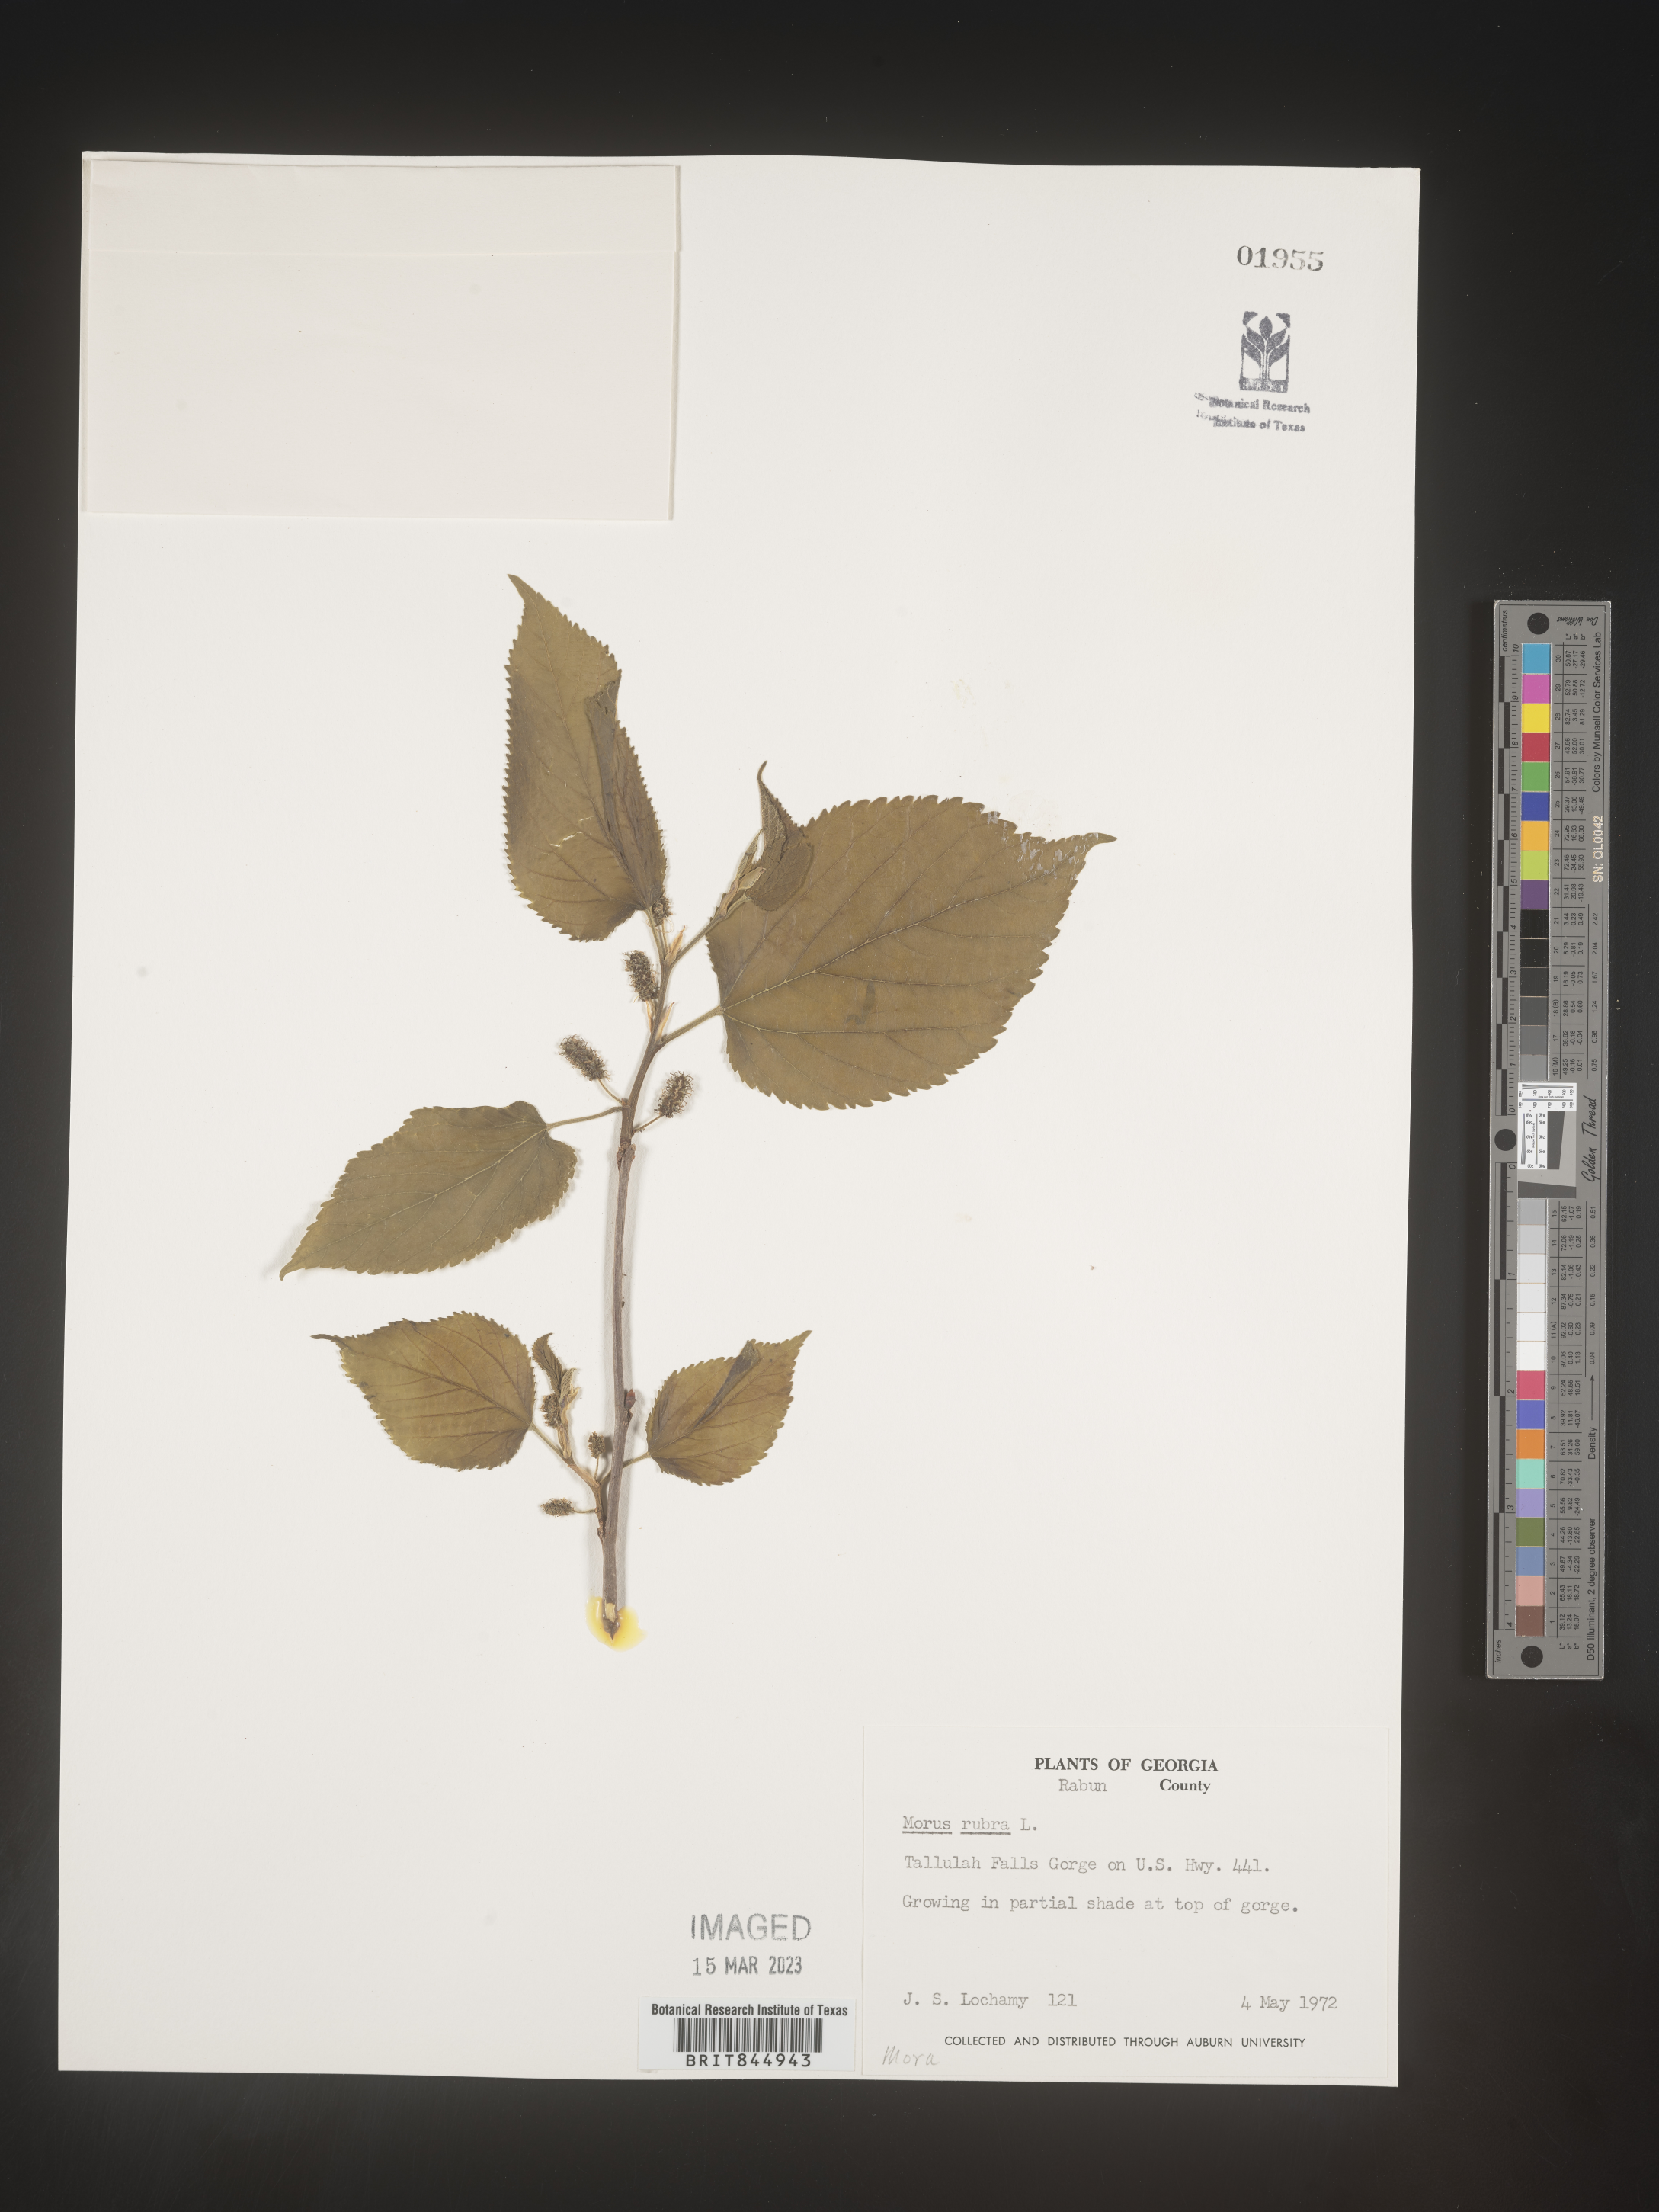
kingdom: Plantae
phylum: Tracheophyta
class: Magnoliopsida
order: Rosales
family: Moraceae
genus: Morus
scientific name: Morus rubra
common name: Red mulberry
